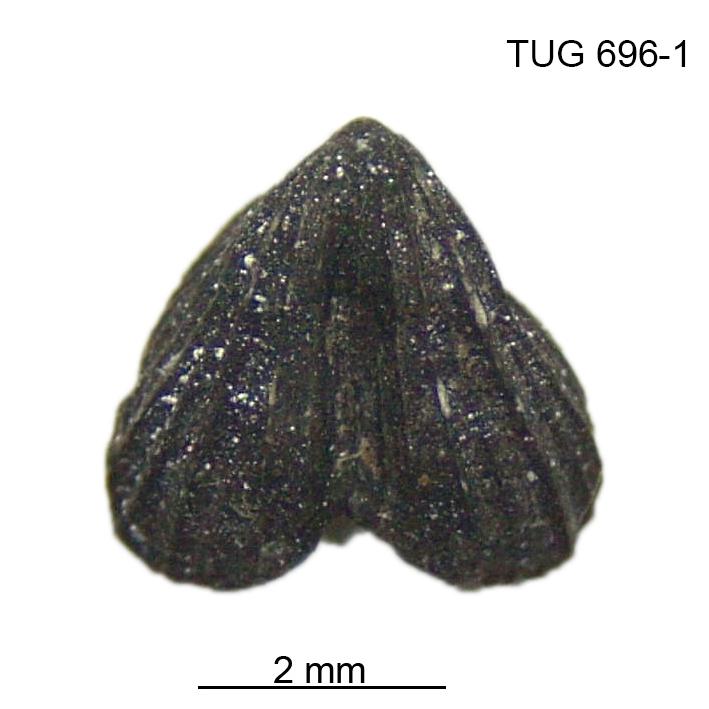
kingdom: Animalia
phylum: Brachiopoda
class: Rhynchonellata
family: Dicoelosiidae
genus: Dicoelosia
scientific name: Dicoelosia anticipata
